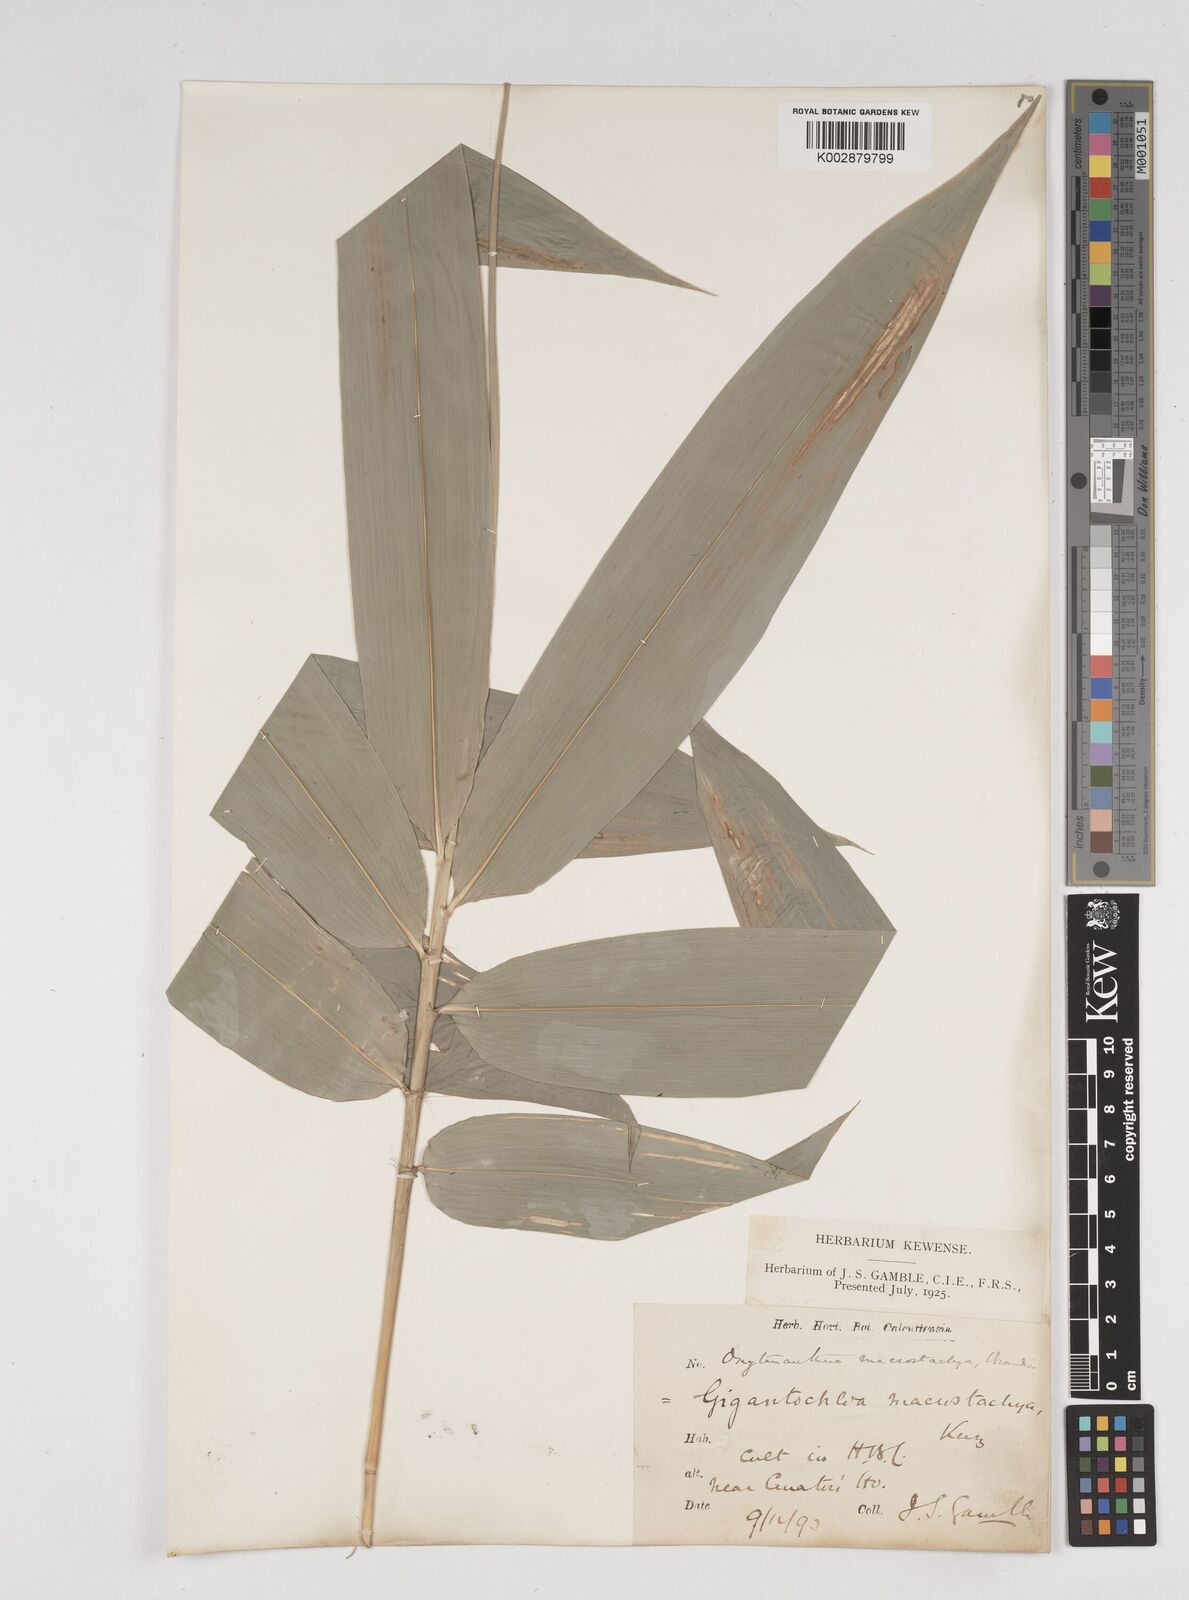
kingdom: Plantae
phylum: Tracheophyta
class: Liliopsida
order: Poales
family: Poaceae
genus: Gigantochloa
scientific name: Gigantochloa macrostachya
